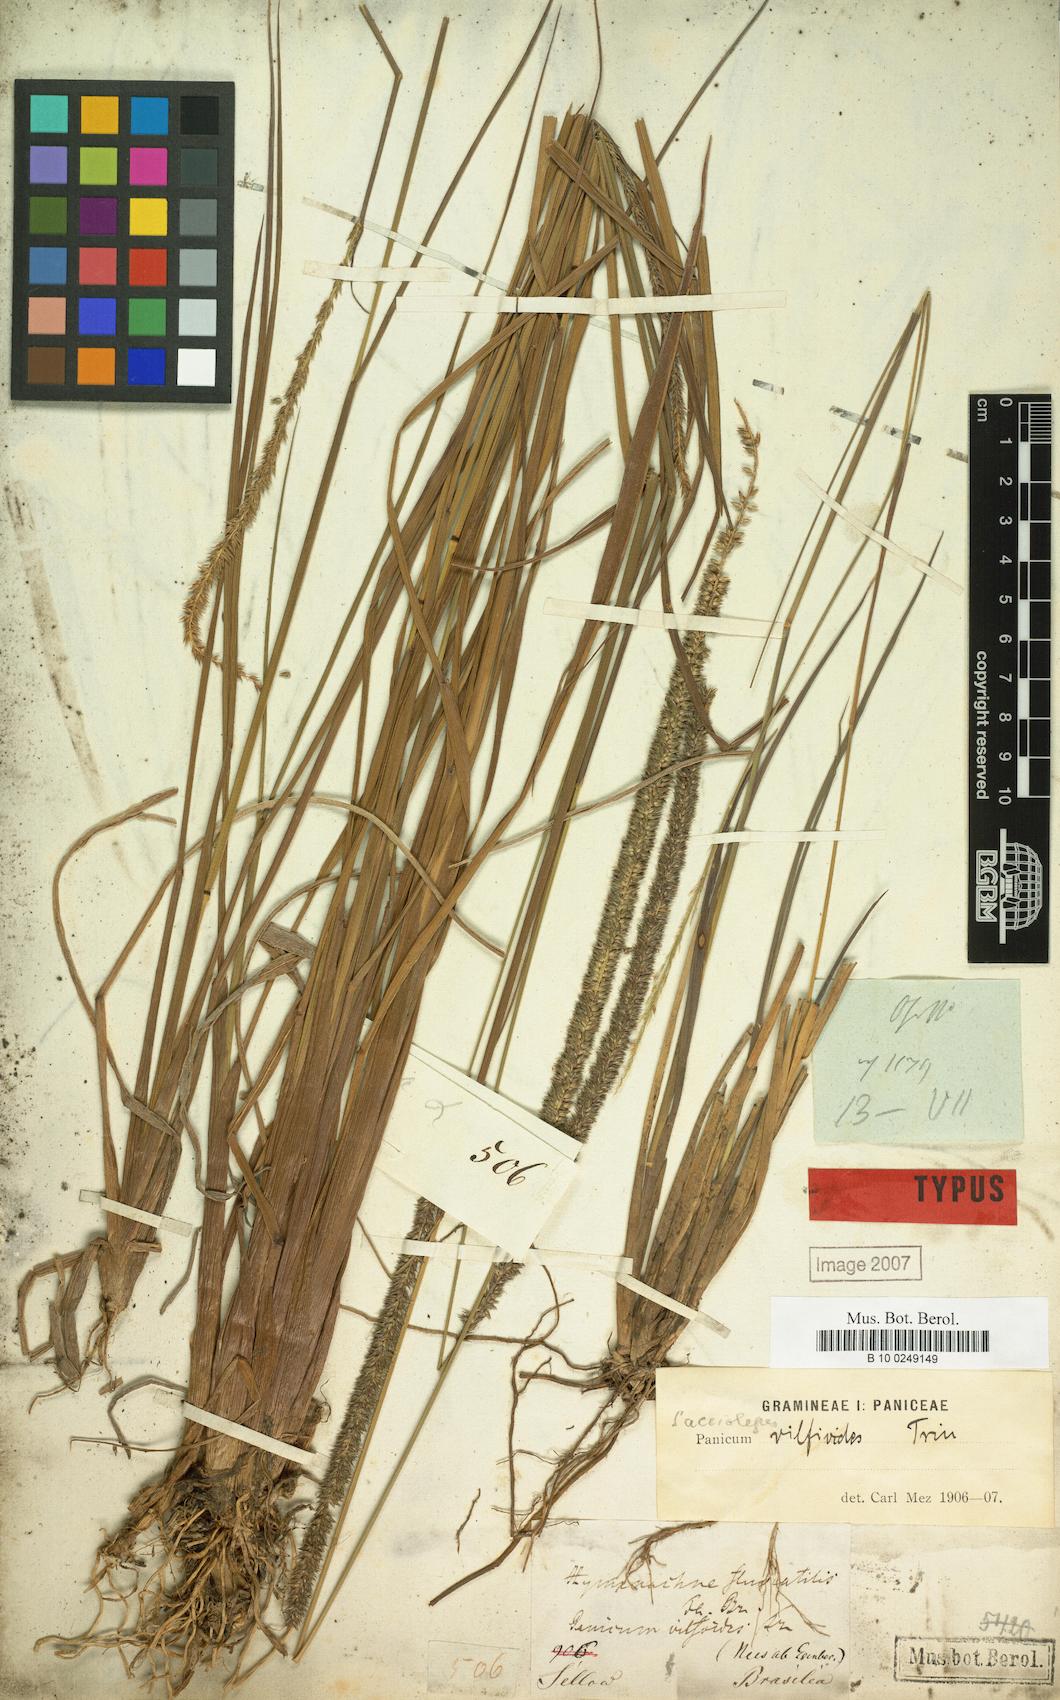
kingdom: Plantae
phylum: Tracheophyta
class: Liliopsida
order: Poales
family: Poaceae
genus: Sacciolepis
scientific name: Sacciolepis vilvoides
